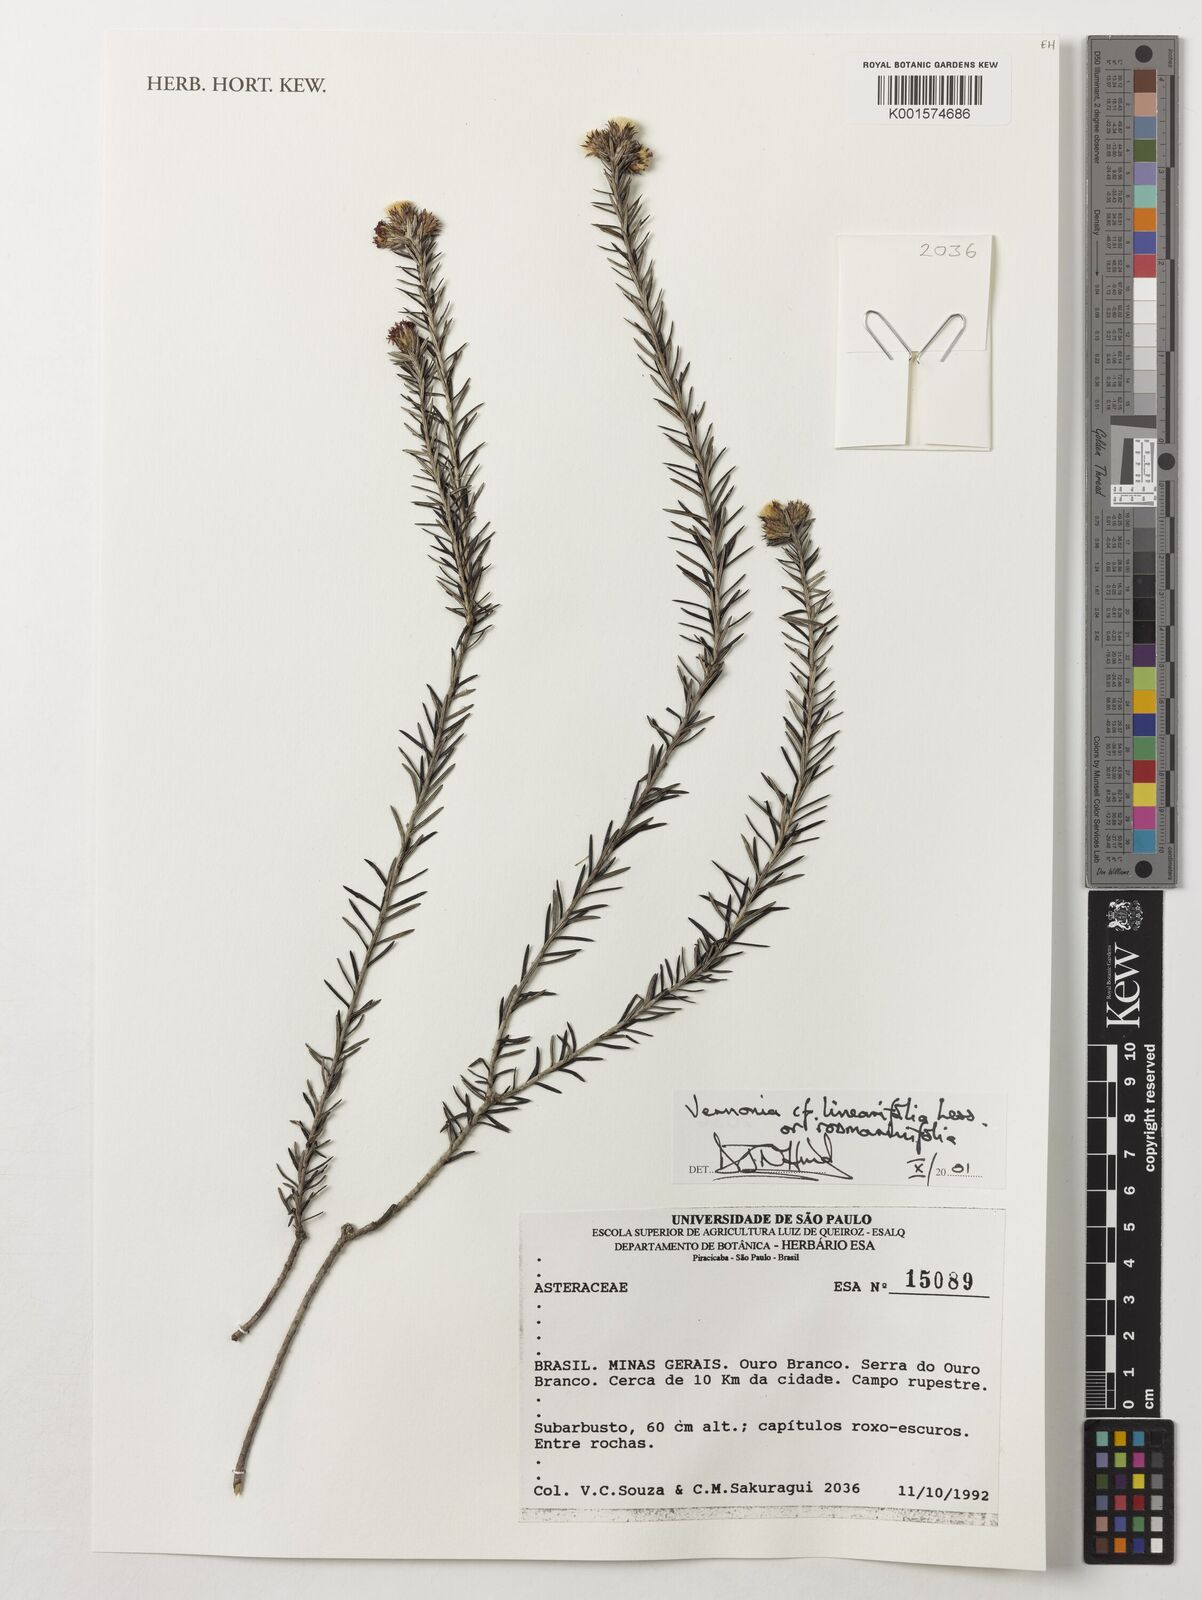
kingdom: Plantae
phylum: Tracheophyta
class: Magnoliopsida
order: Asterales
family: Asteraceae
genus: Lessingianthus
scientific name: Lessingianthus linearifolius
